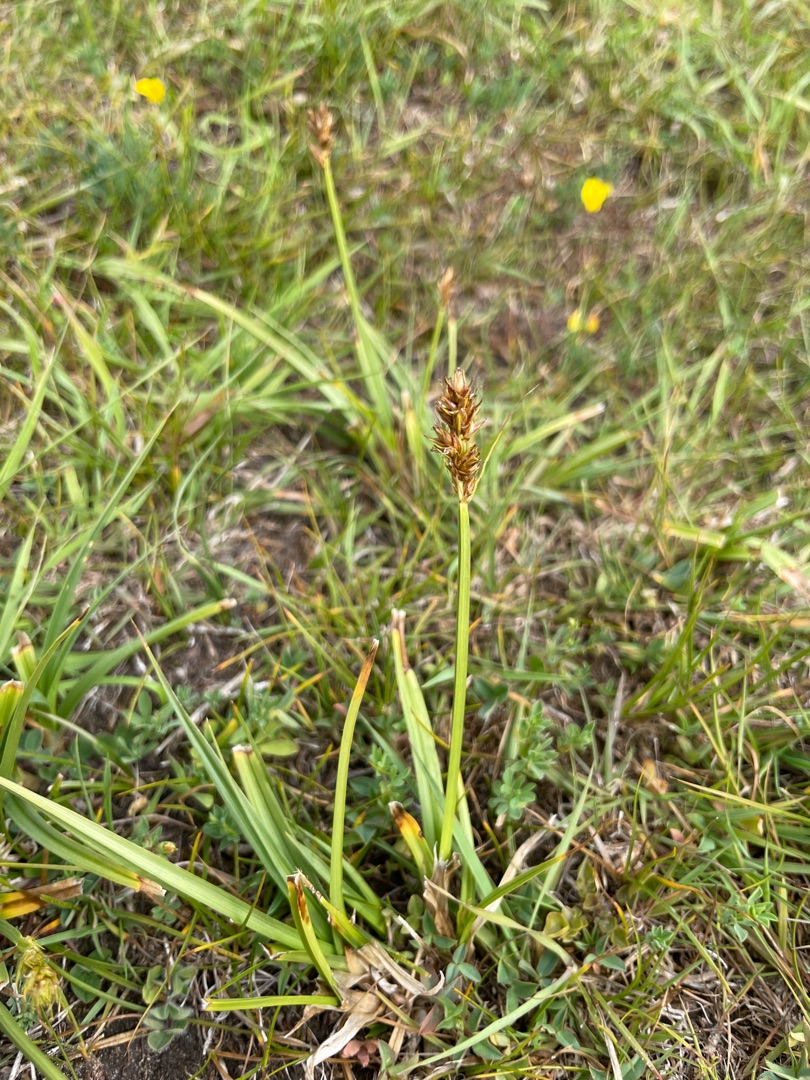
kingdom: Plantae
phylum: Tracheophyta
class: Liliopsida
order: Poales
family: Cyperaceae
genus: Carex
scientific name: Carex otrubae
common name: Sylt-star
